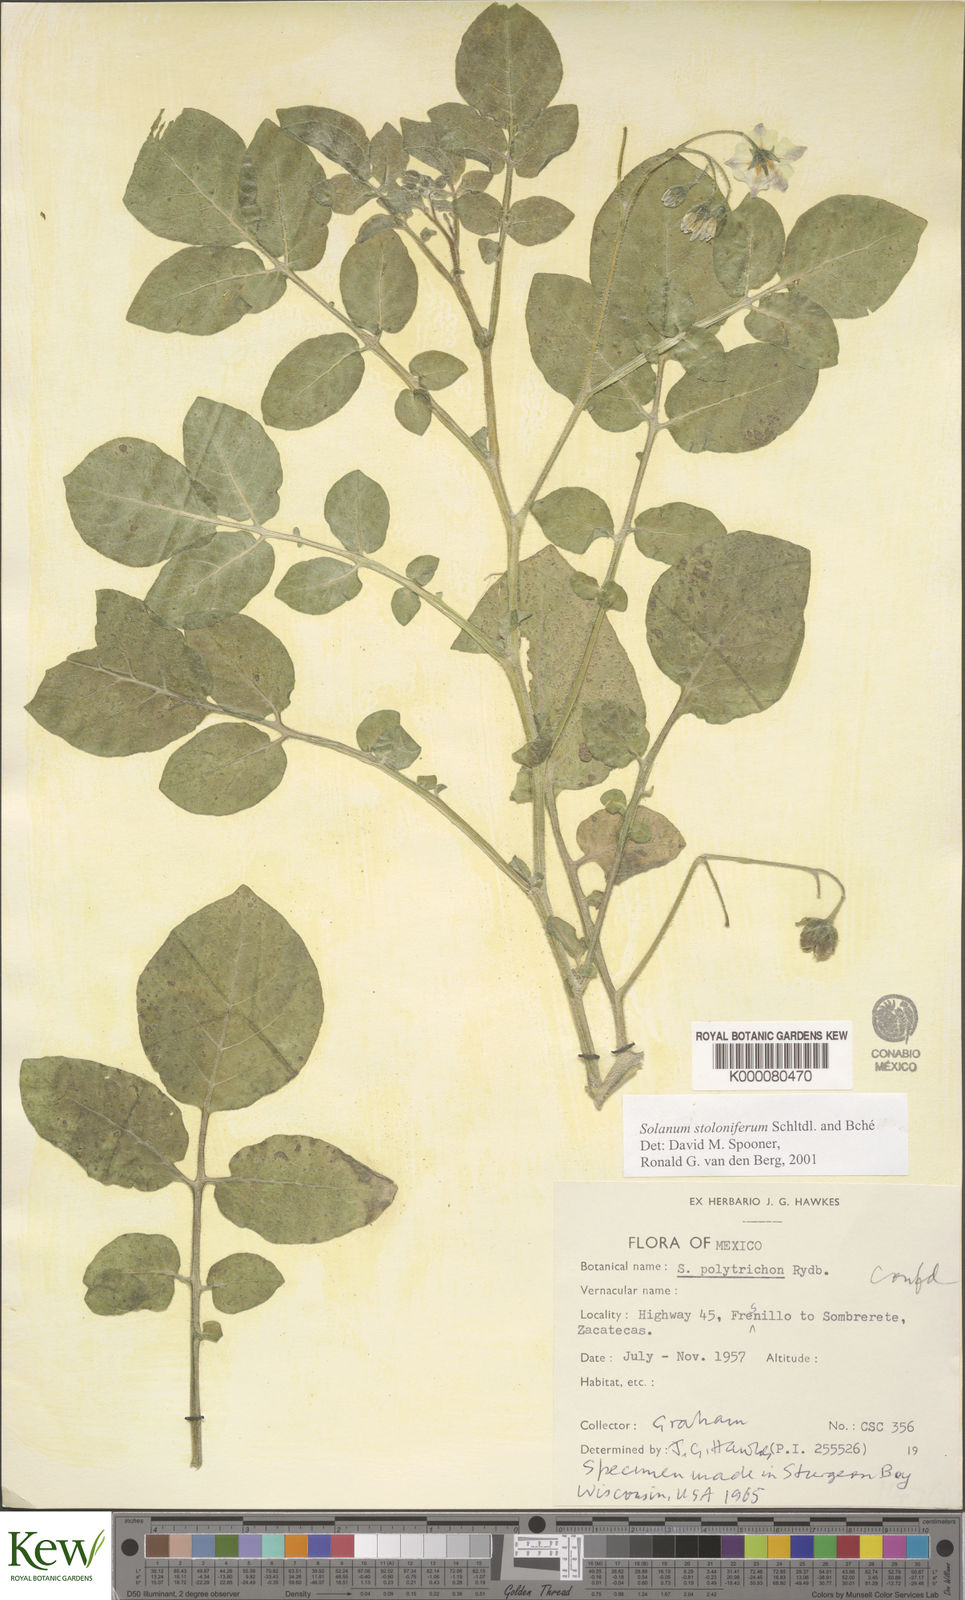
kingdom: Plantae
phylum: Tracheophyta
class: Magnoliopsida
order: Solanales
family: Solanaceae
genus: Solanum
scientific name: Solanum stoloniferum
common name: Fendler's nighshade
